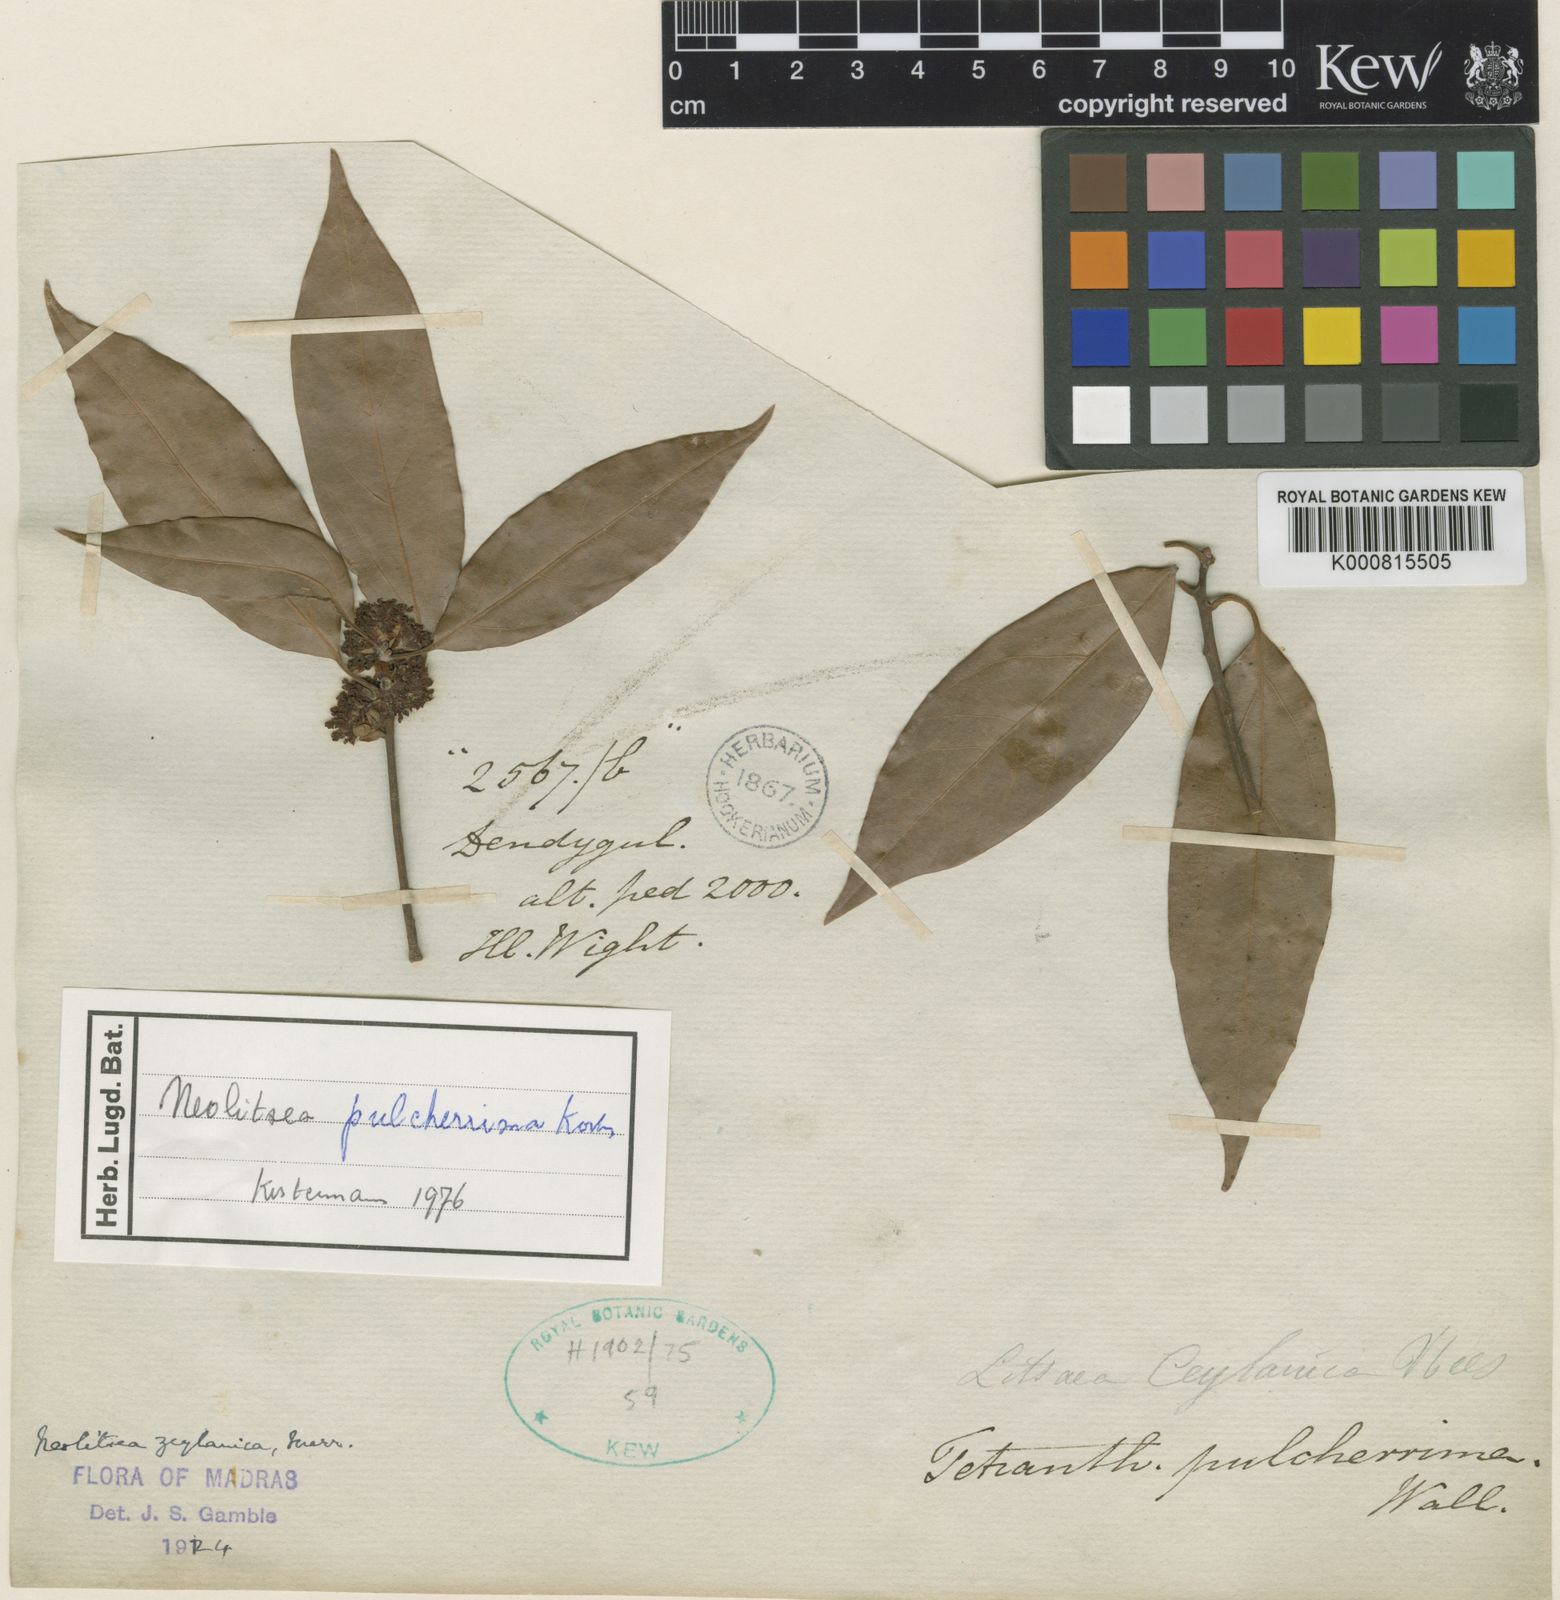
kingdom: Plantae
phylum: Tracheophyta
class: Magnoliopsida
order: Laurales
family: Lauraceae
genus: Neolitsea
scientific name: Neolitsea
